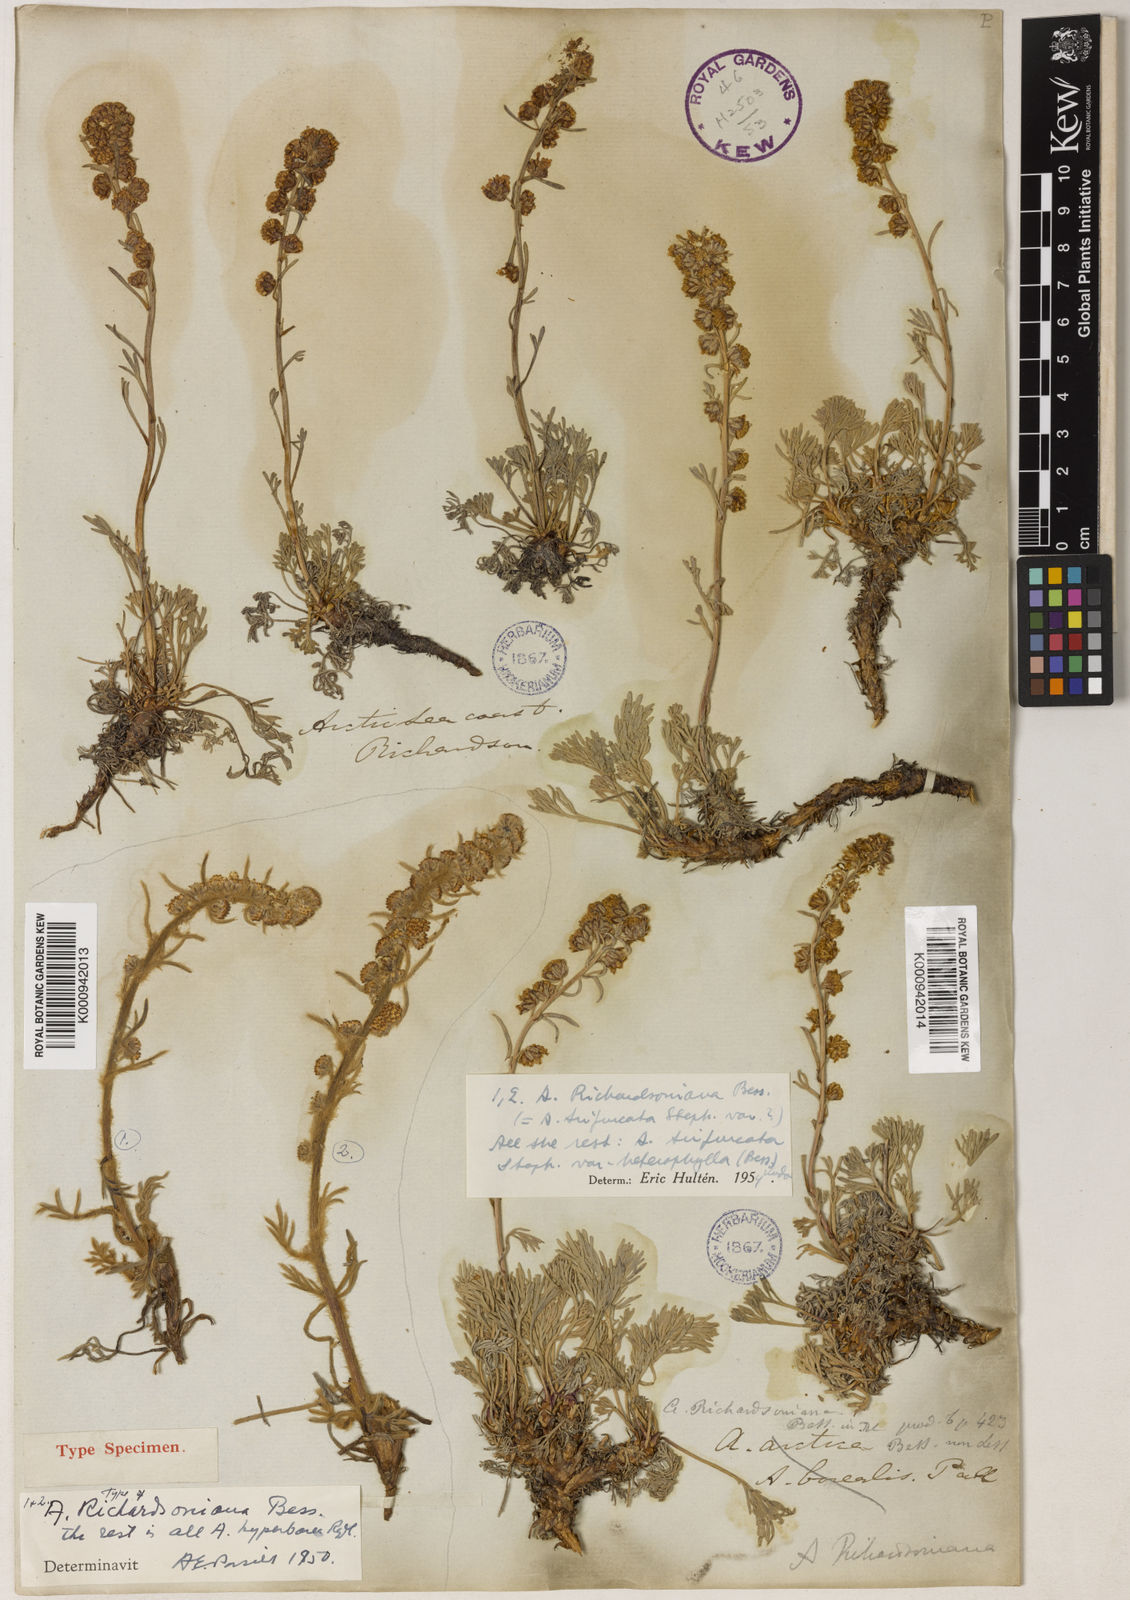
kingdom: Plantae
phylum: Tracheophyta
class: Magnoliopsida
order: Asterales
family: Asteraceae
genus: Artemisia
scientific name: Artemisia norvegica
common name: Norwegian mugwort
